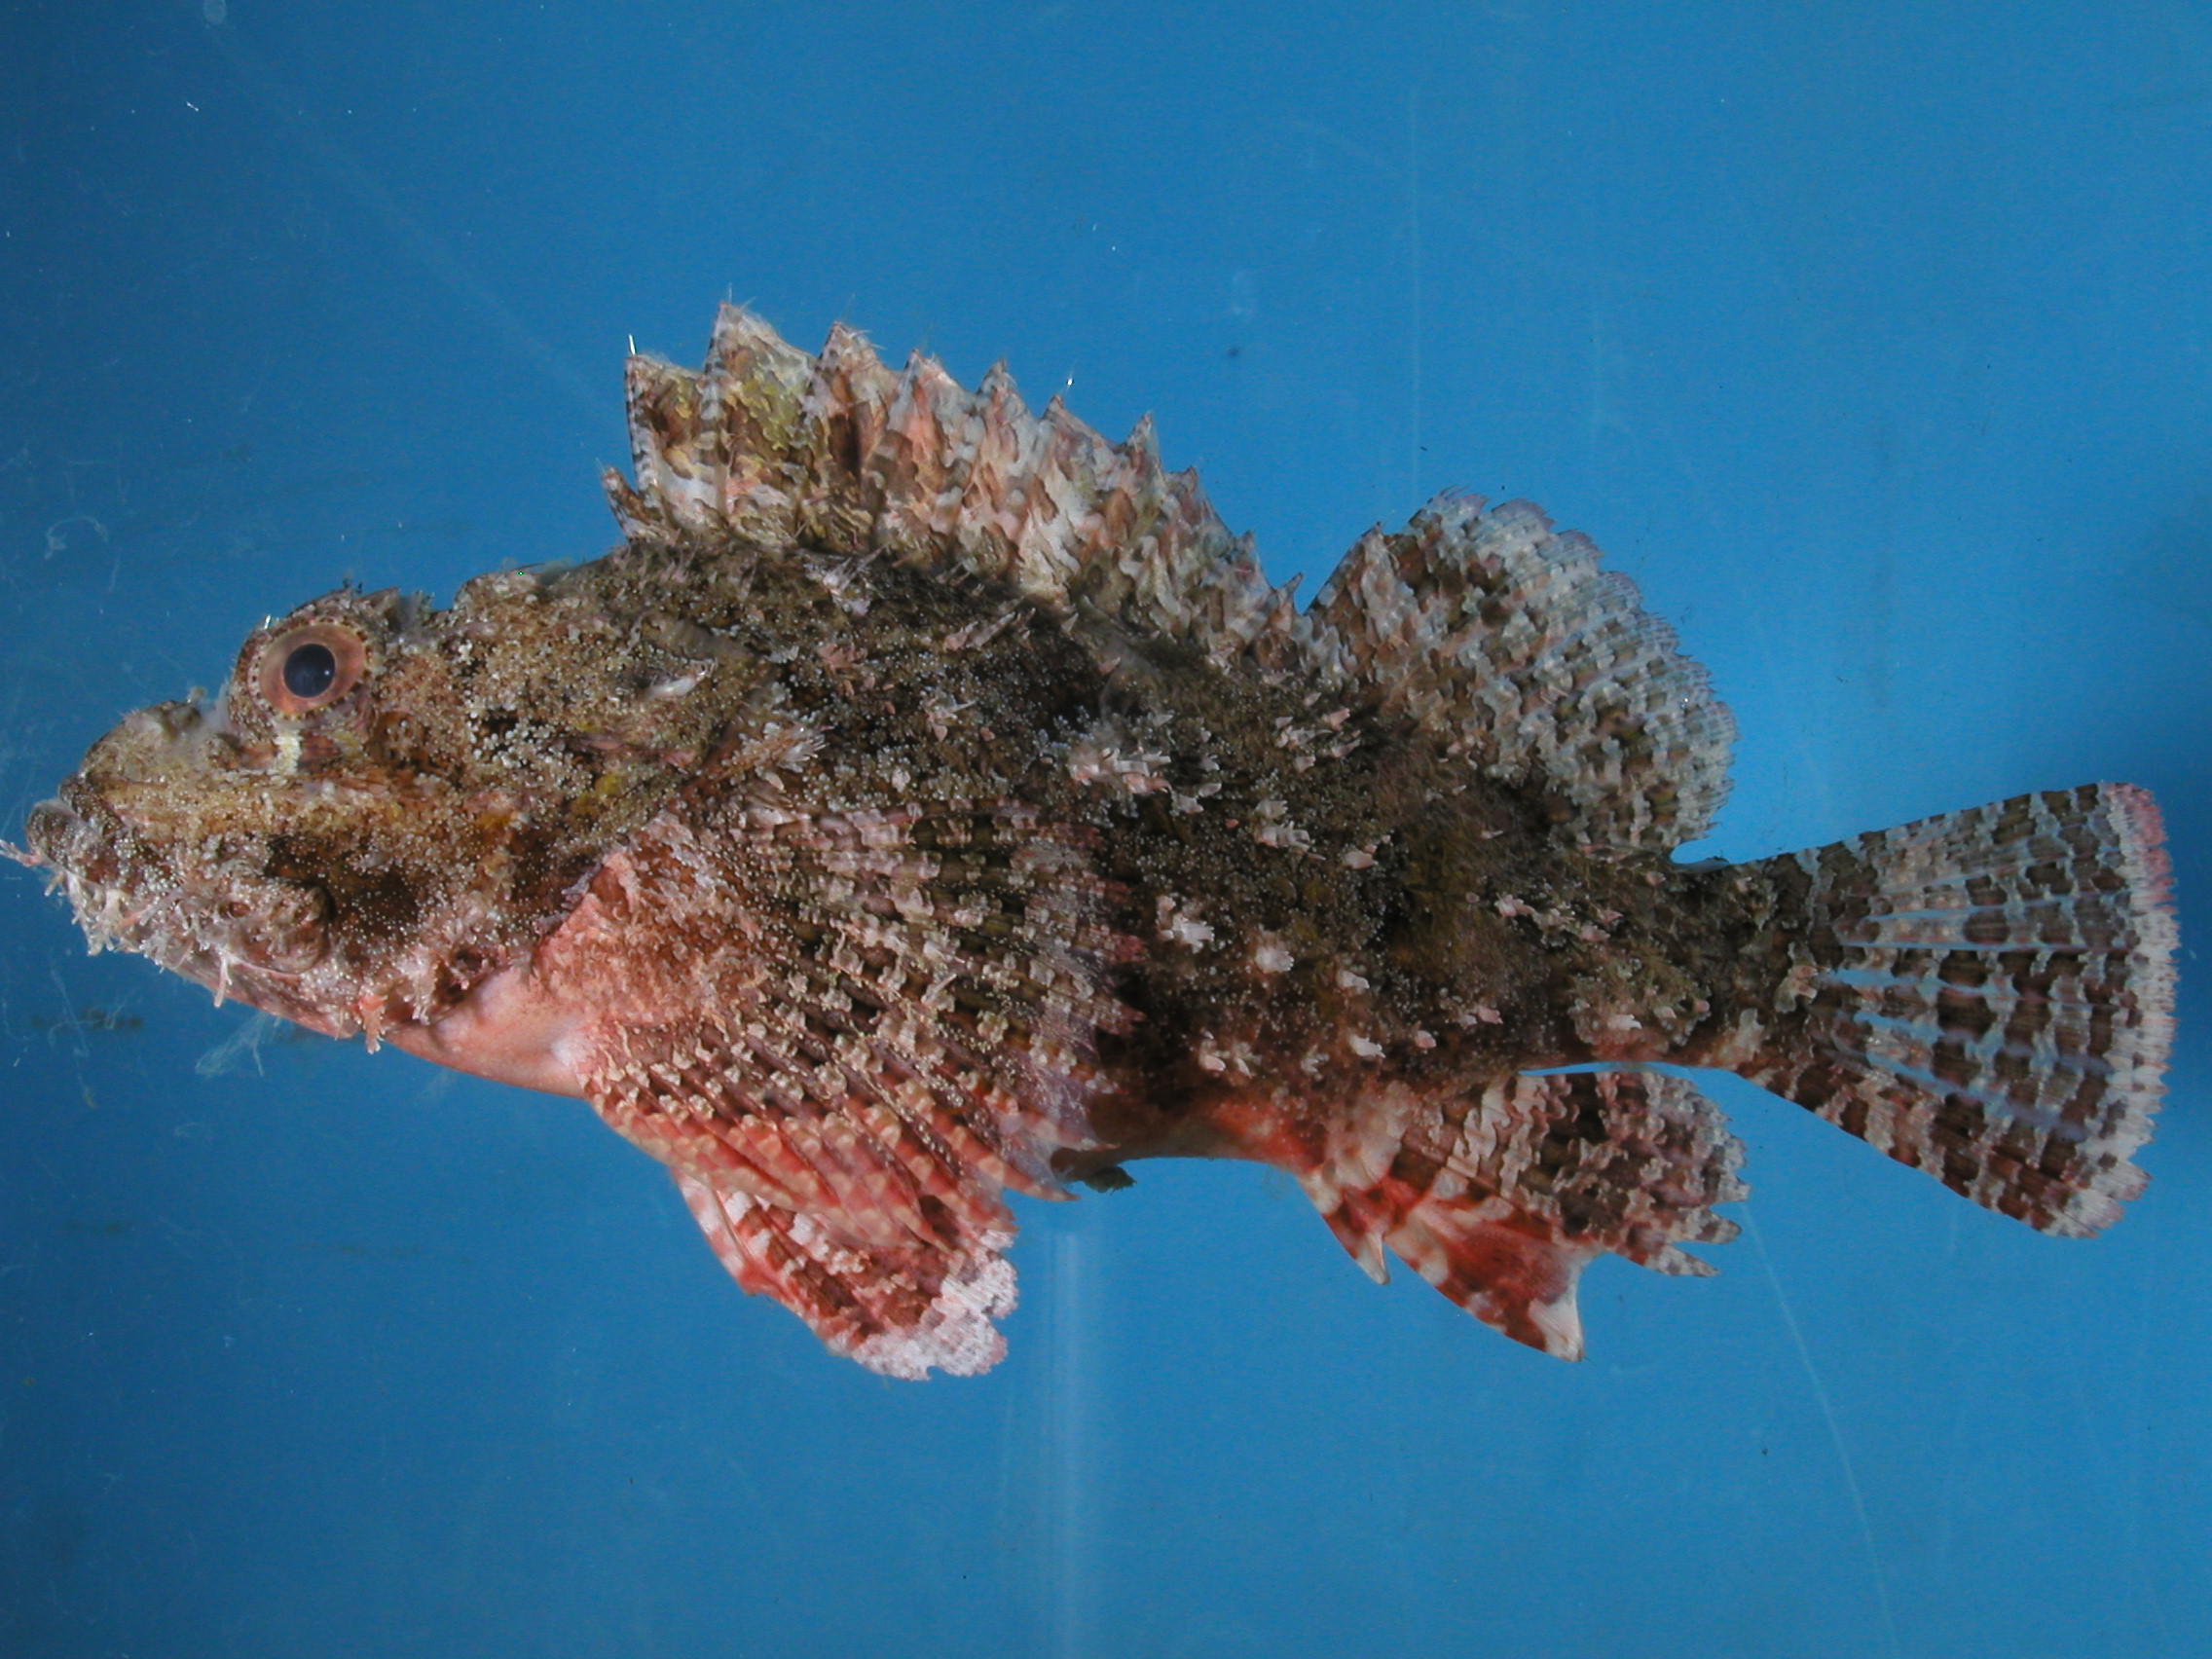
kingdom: Animalia
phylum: Chordata
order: Scorpaeniformes
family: Scorpaenidae
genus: Scorpaenopsis
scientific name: Scorpaenopsis possi
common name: Poss's scorpionfish
